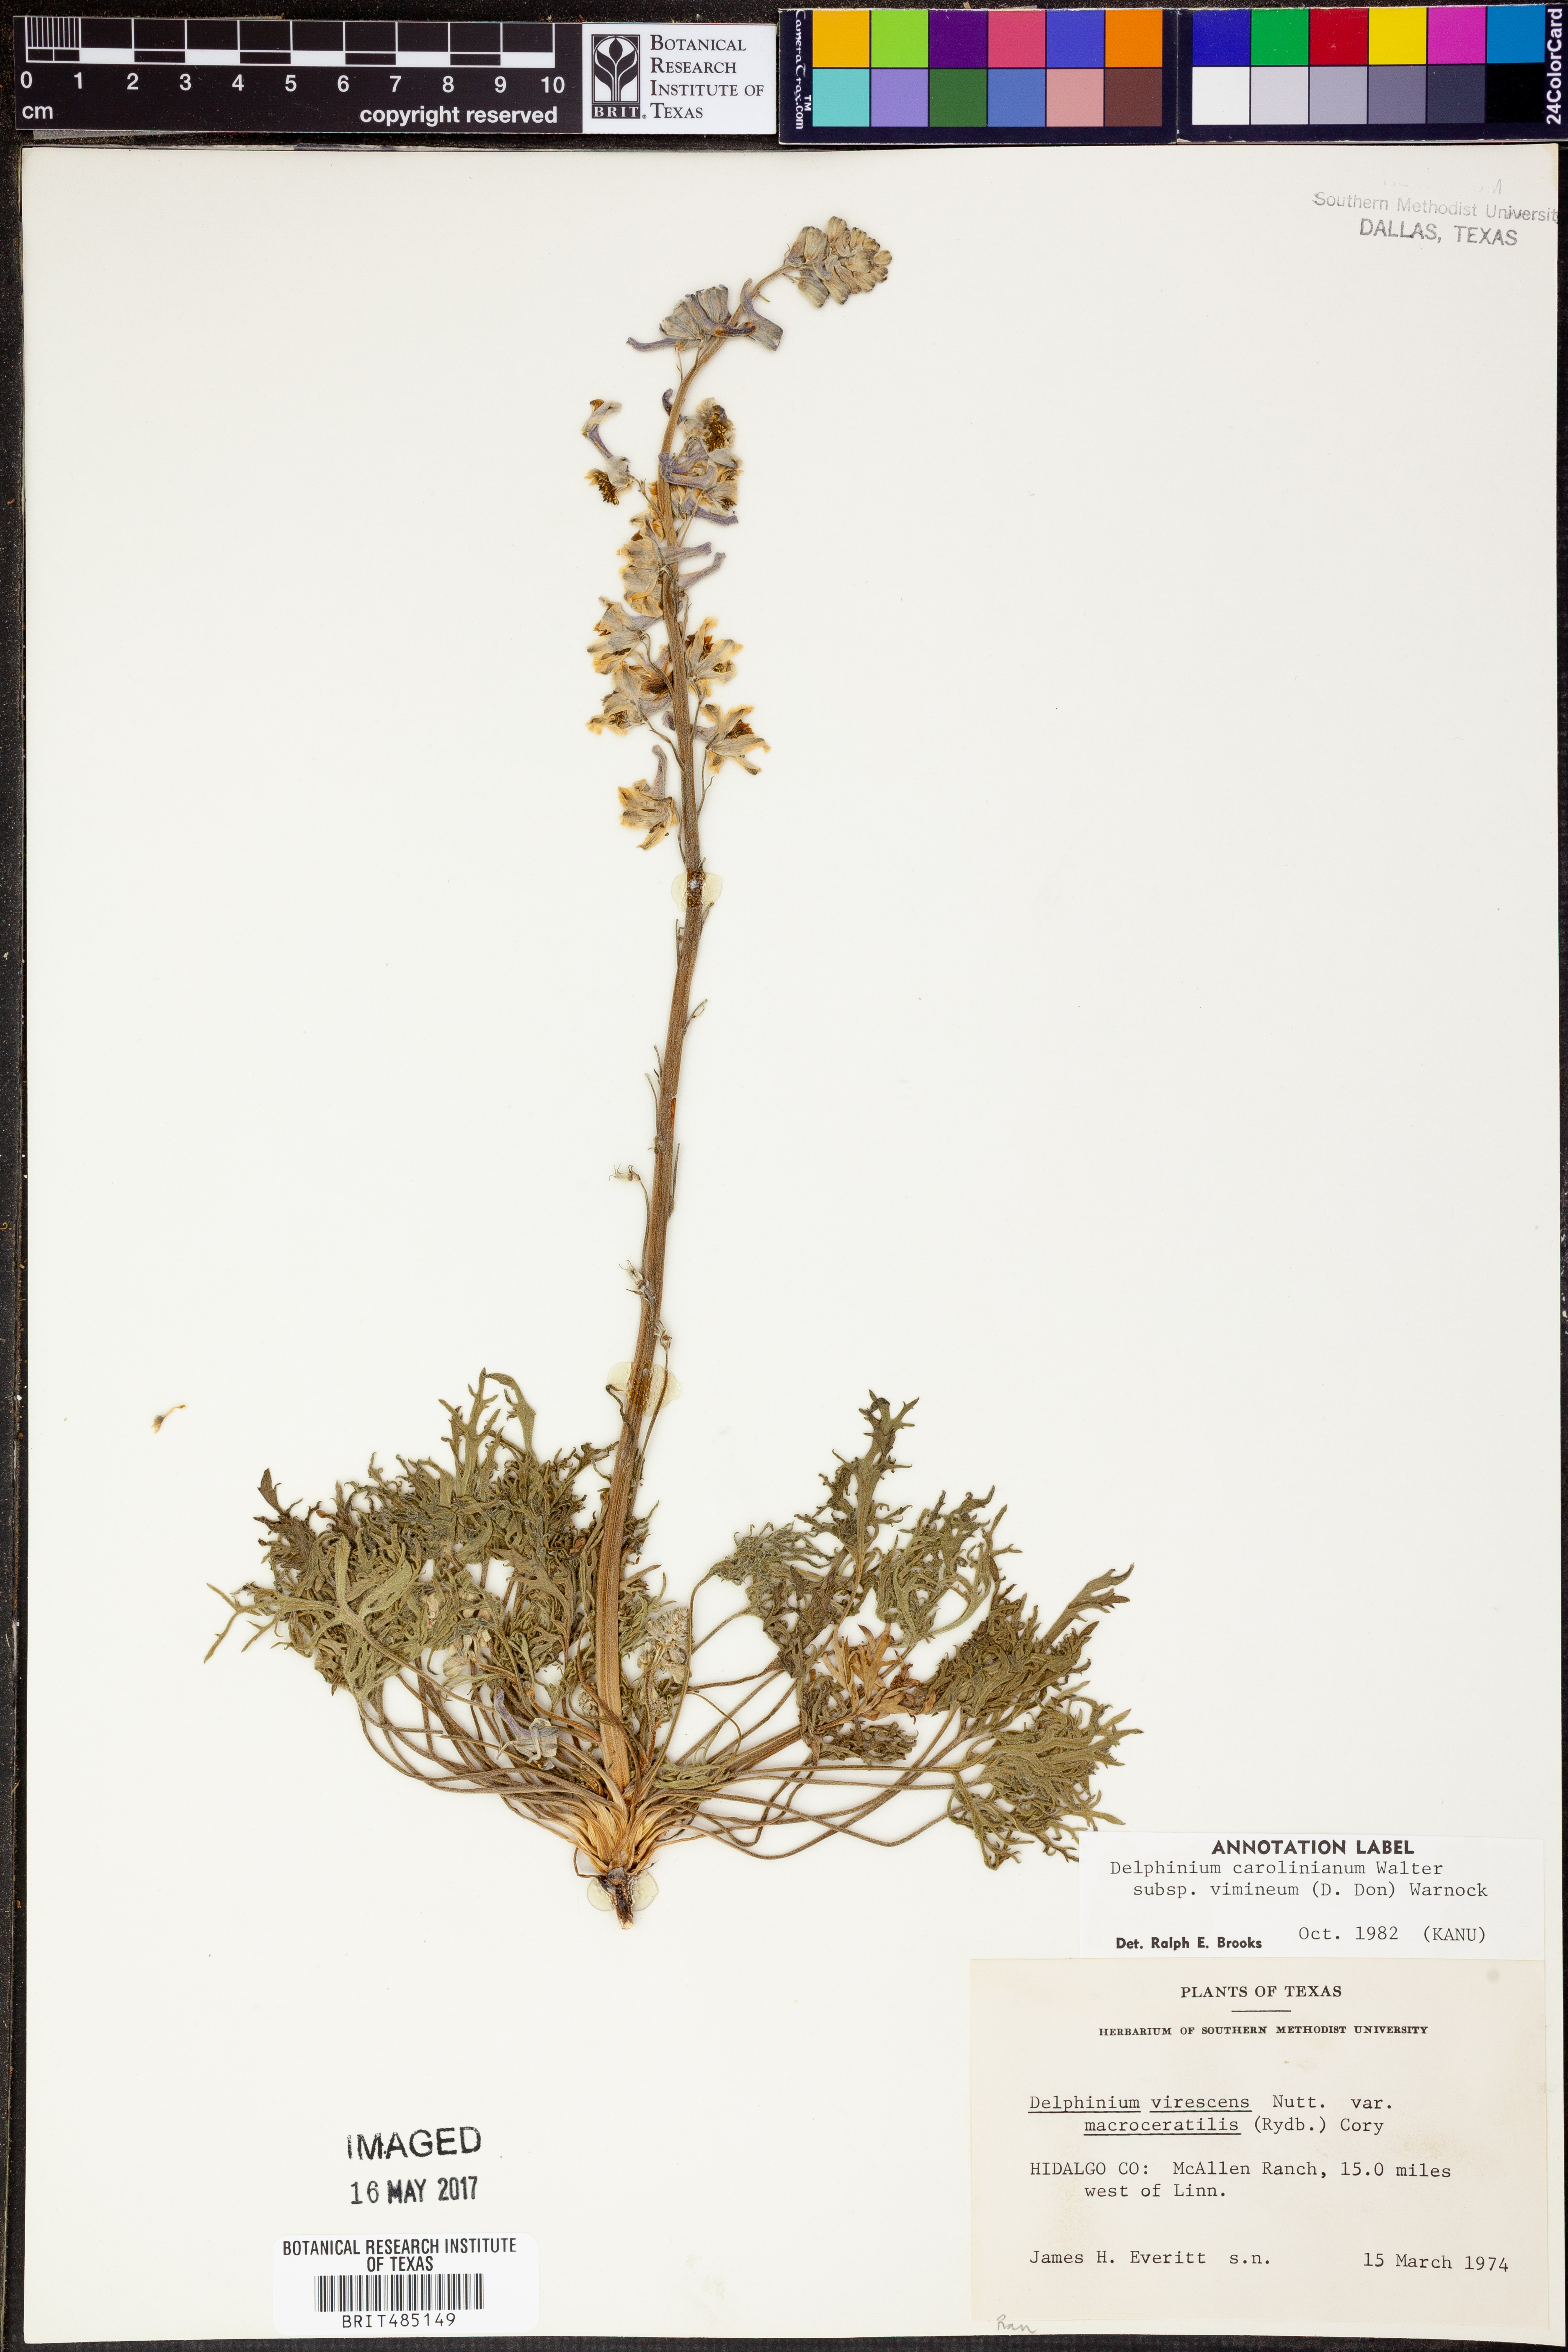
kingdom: Plantae
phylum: Tracheophyta
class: Magnoliopsida
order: Ranunculales
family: Ranunculaceae
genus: Delphinium
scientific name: Delphinium carolinianum
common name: Carolina larkspur
